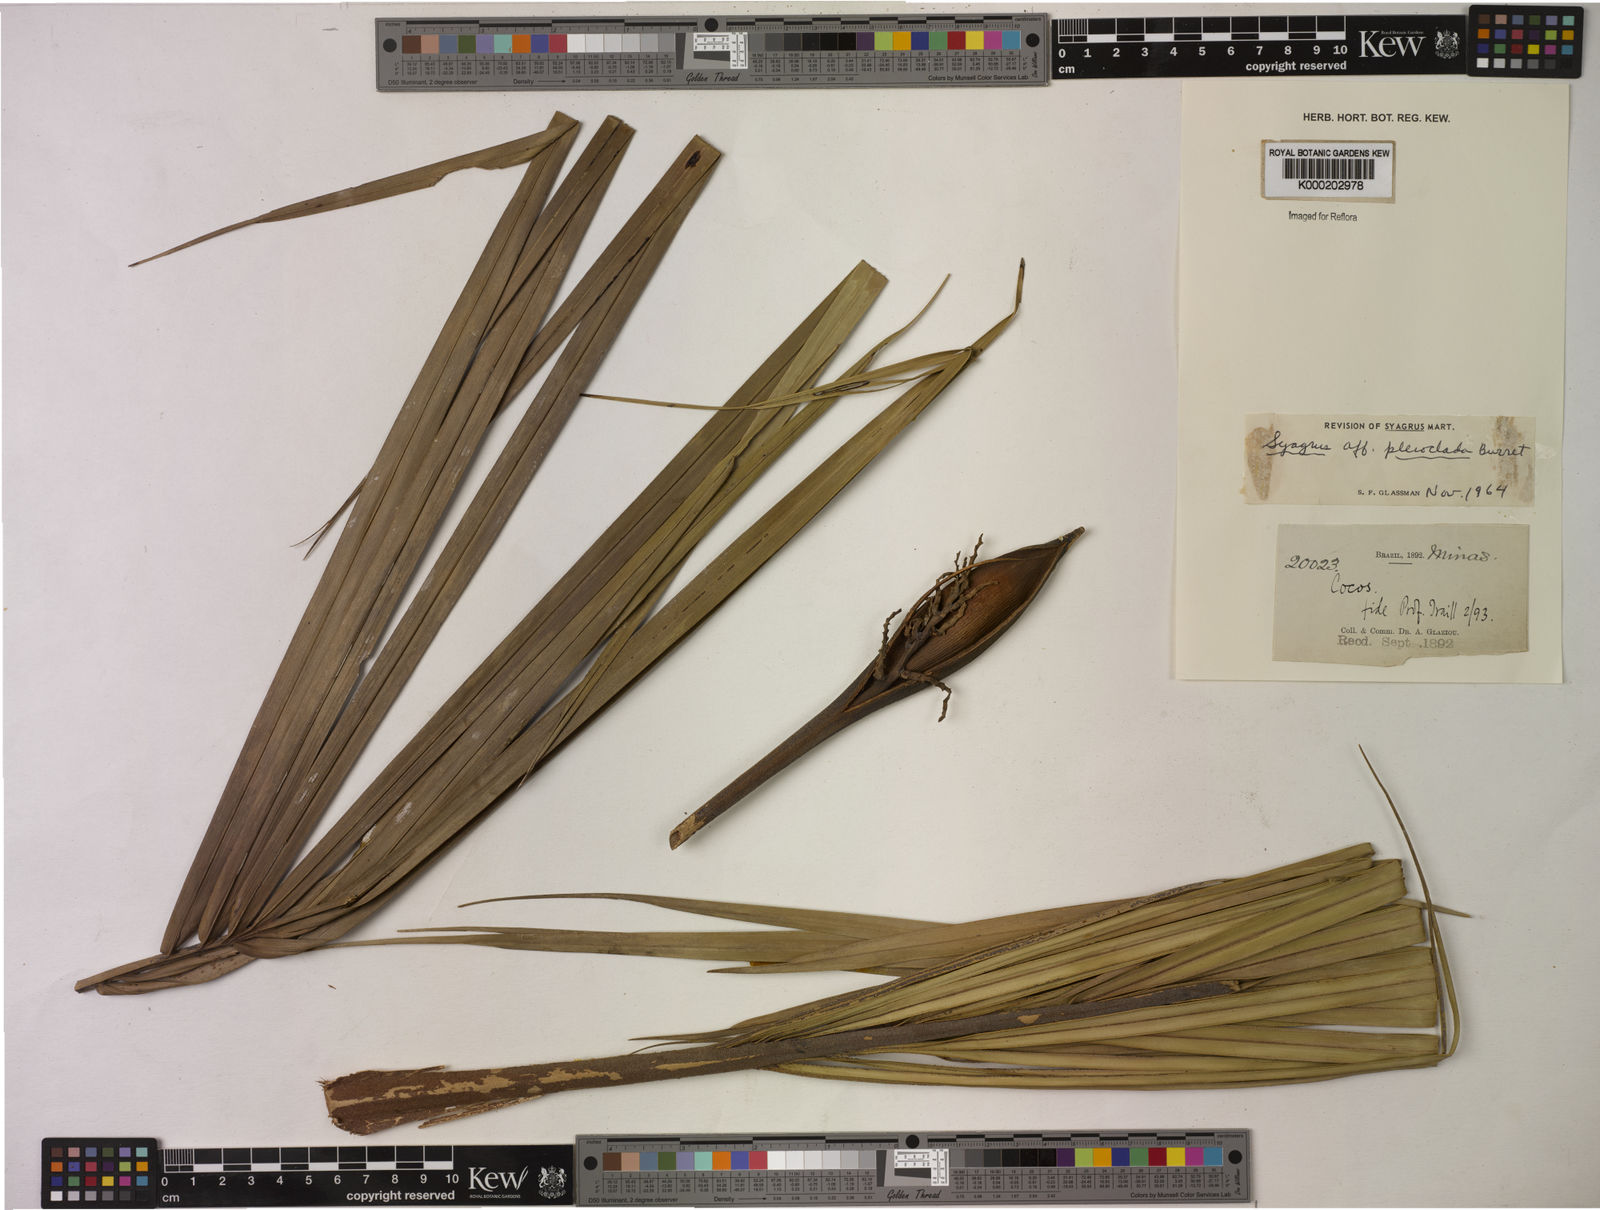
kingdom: Plantae
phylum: Tracheophyta
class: Liliopsida
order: Arecales
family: Arecaceae
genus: Syagrus
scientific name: Syagrus pleioclada
